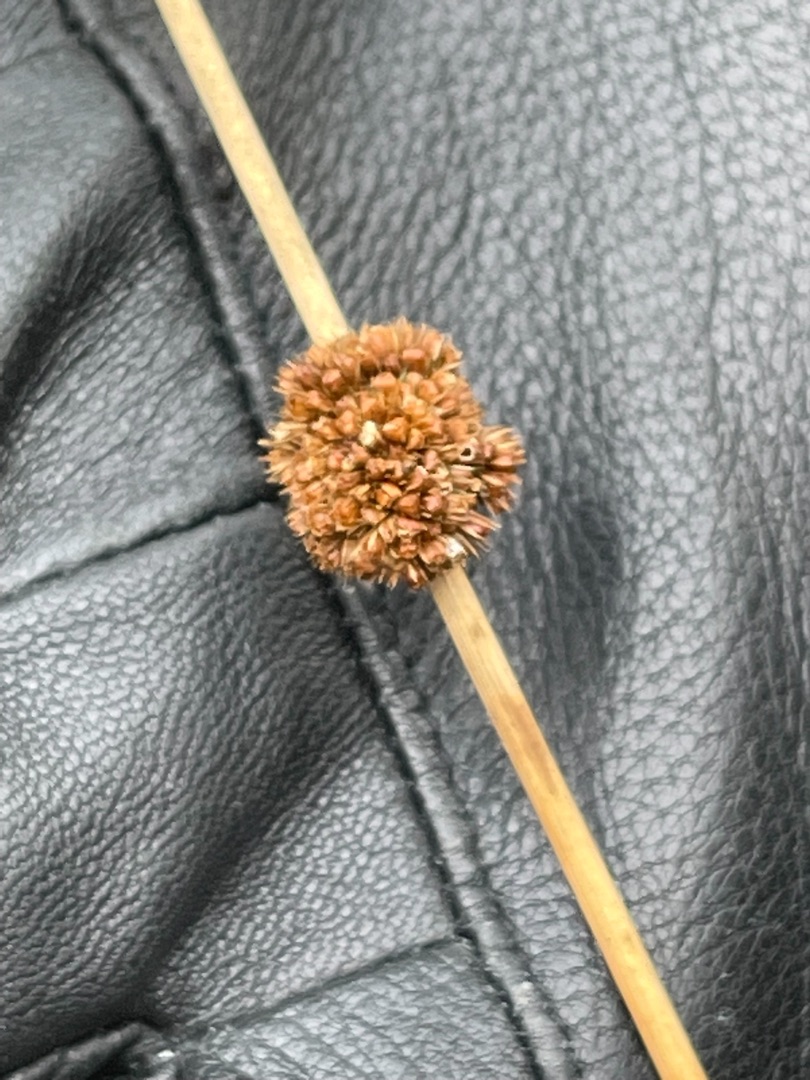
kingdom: Plantae
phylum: Tracheophyta
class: Liliopsida
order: Poales
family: Juncaceae
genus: Juncus
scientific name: Juncus conglomeratus
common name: Knop-siv
